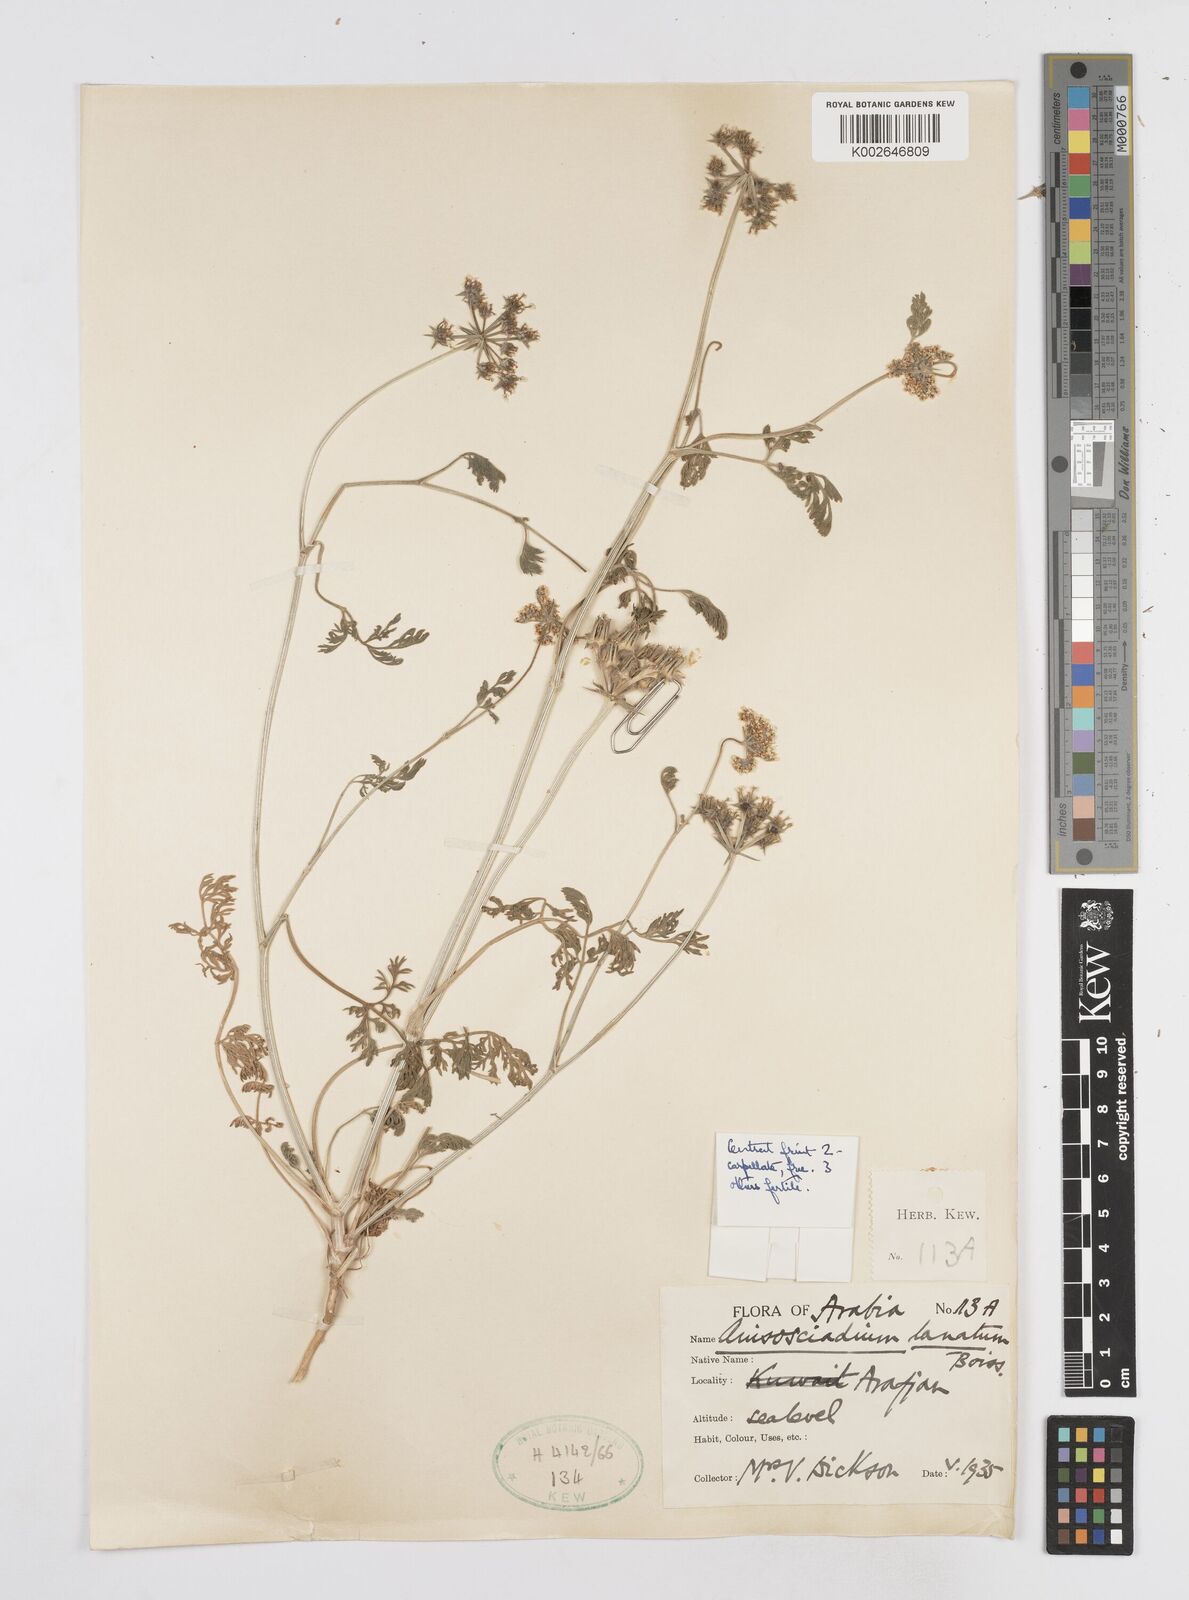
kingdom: Plantae
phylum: Tracheophyta
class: Magnoliopsida
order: Apiales
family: Apiaceae
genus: Anisosciadium
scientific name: Anisosciadium lanatum
